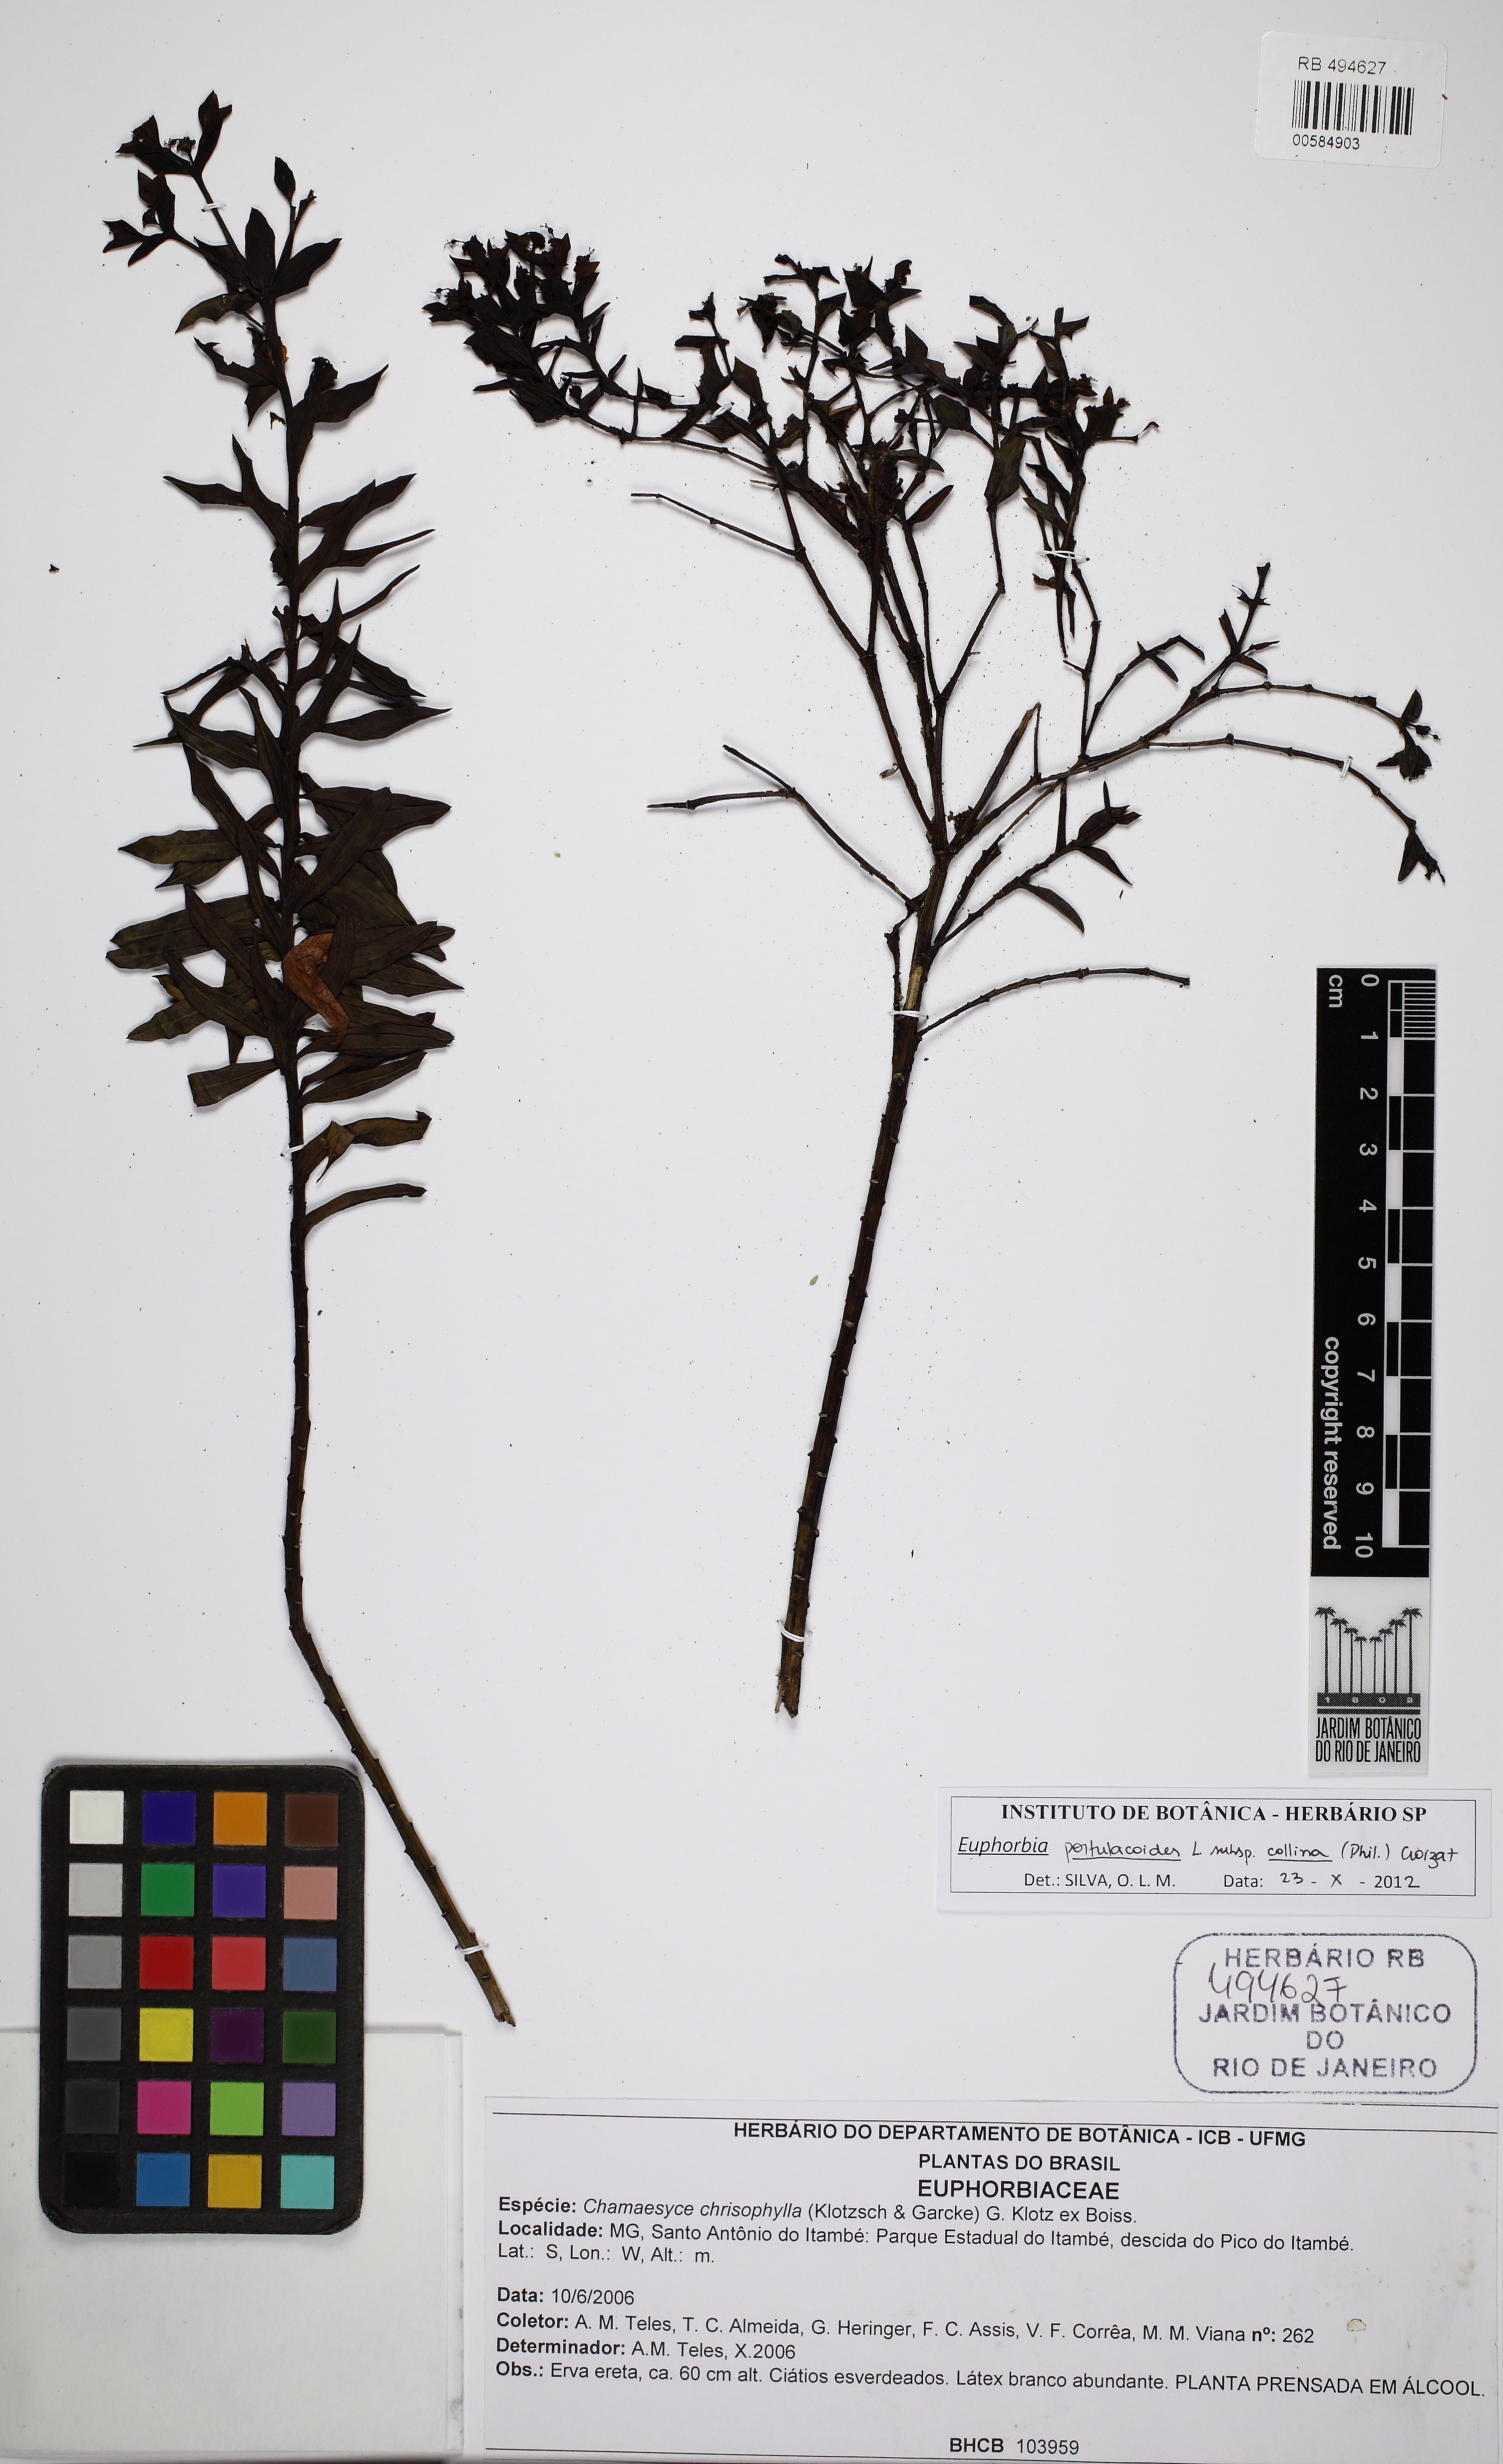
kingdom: Plantae
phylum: Tracheophyta
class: Magnoliopsida
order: Malpighiales
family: Euphorbiaceae
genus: Euphorbia
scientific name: Euphorbia collina
